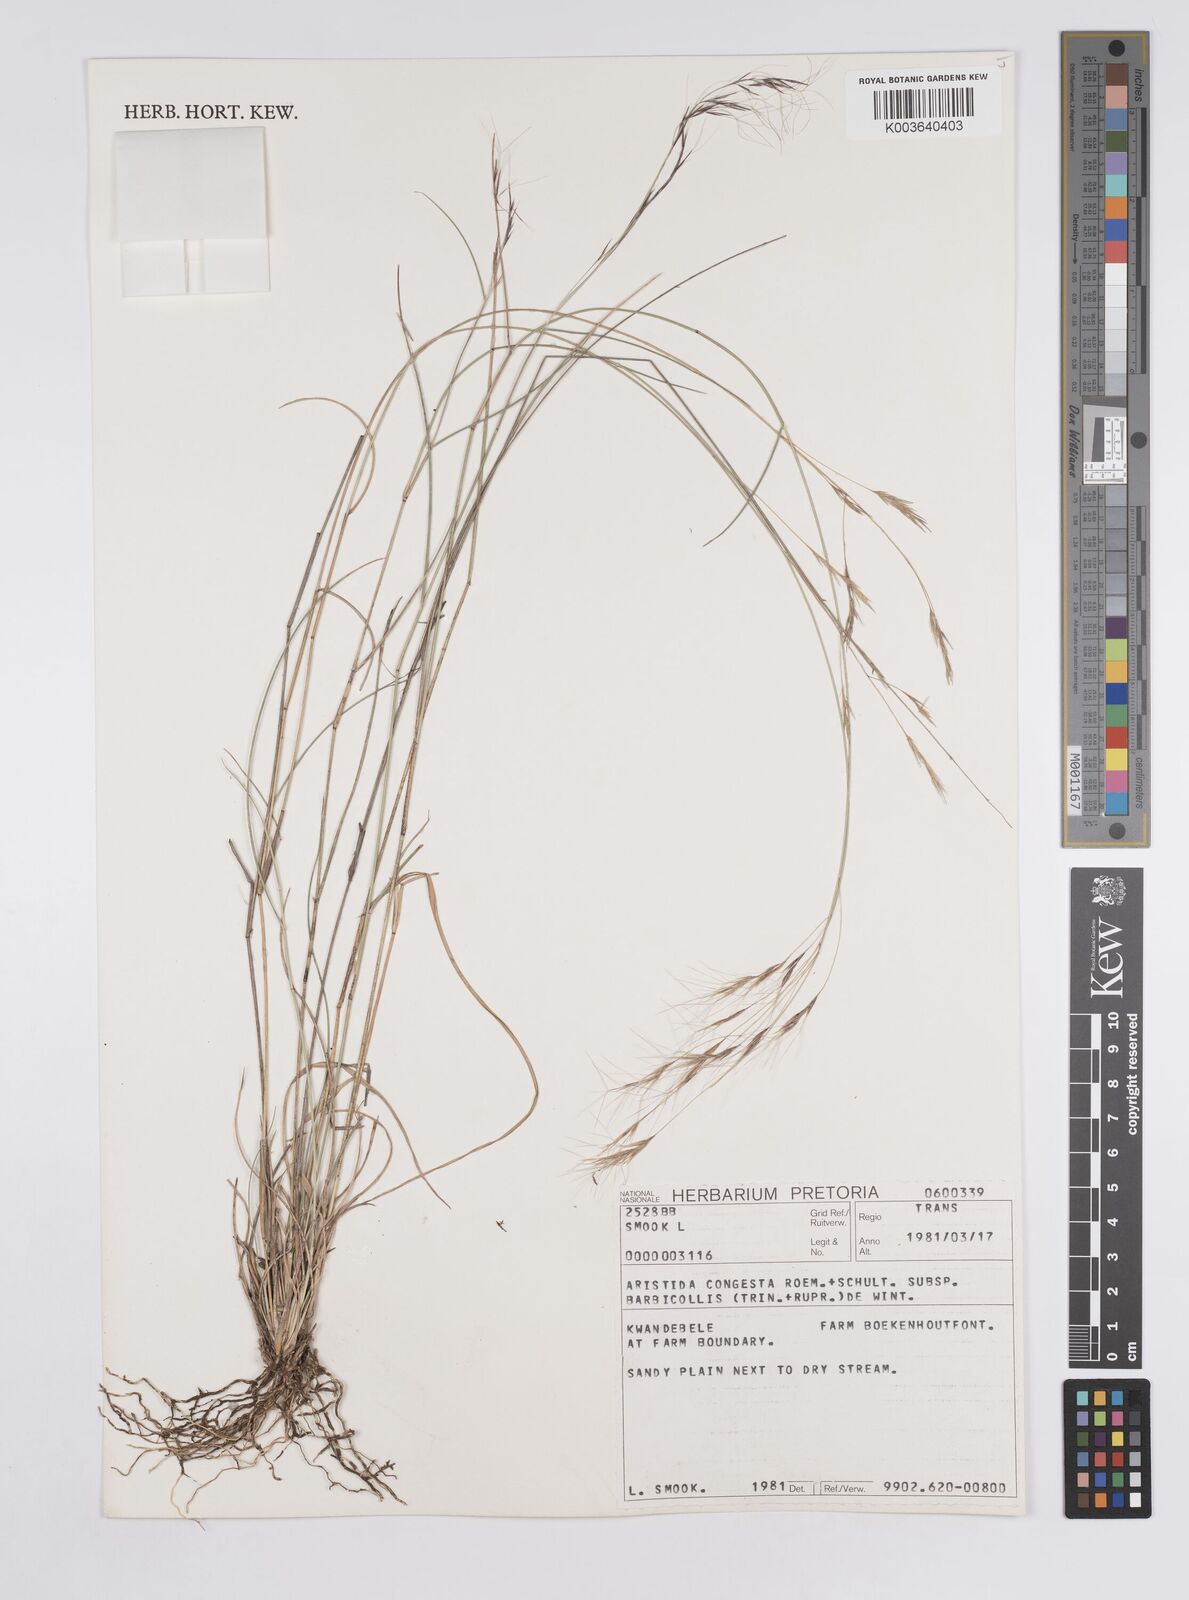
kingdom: Plantae
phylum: Tracheophyta
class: Liliopsida
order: Poales
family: Poaceae
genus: Aristida
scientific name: Aristida barbicollis
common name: Spreading prickle grass
